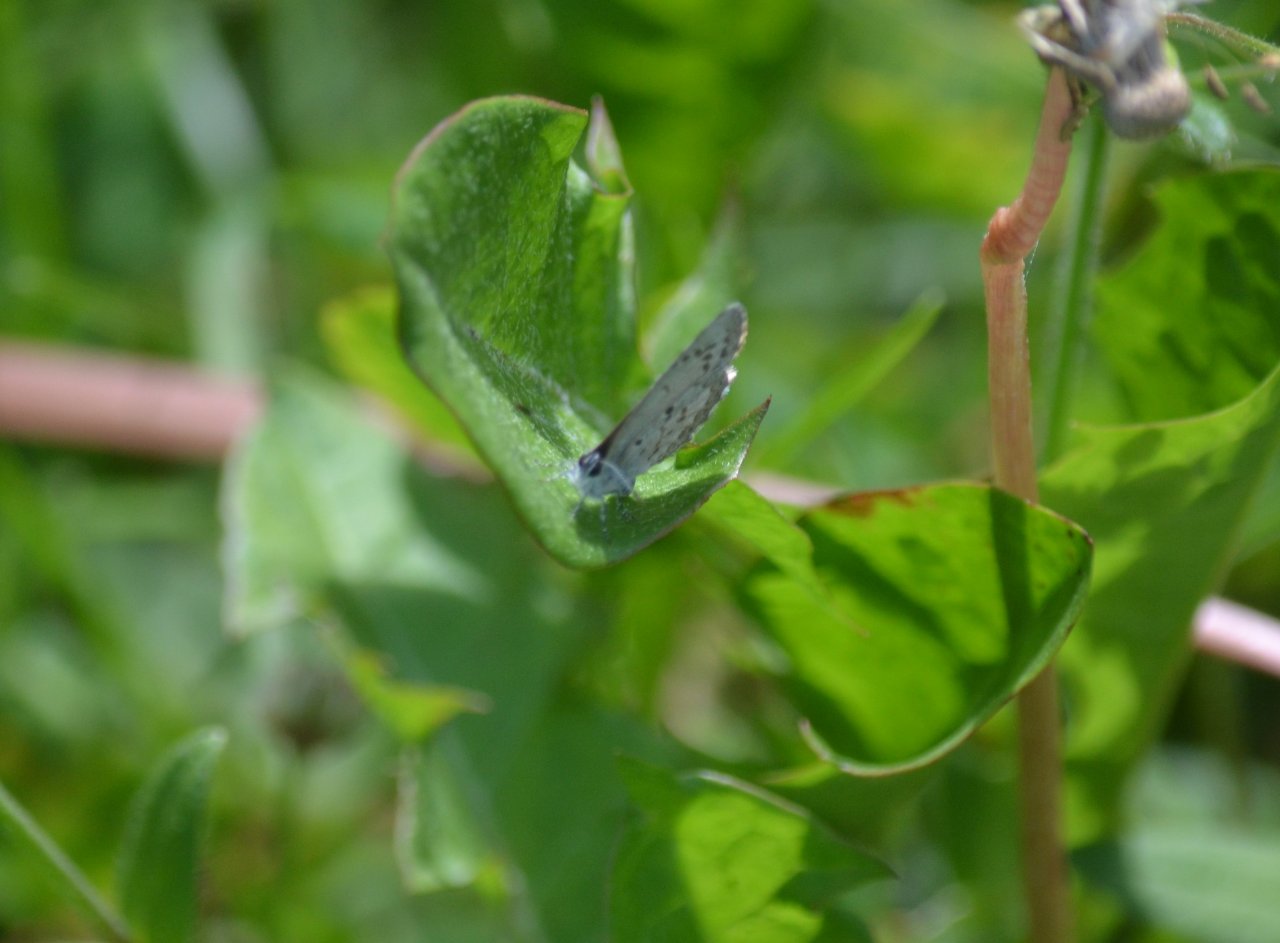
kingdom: Animalia
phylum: Arthropoda
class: Insecta
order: Lepidoptera
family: Lycaenidae
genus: Celastrina
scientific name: Celastrina lucia
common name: Northern Spring Azure
